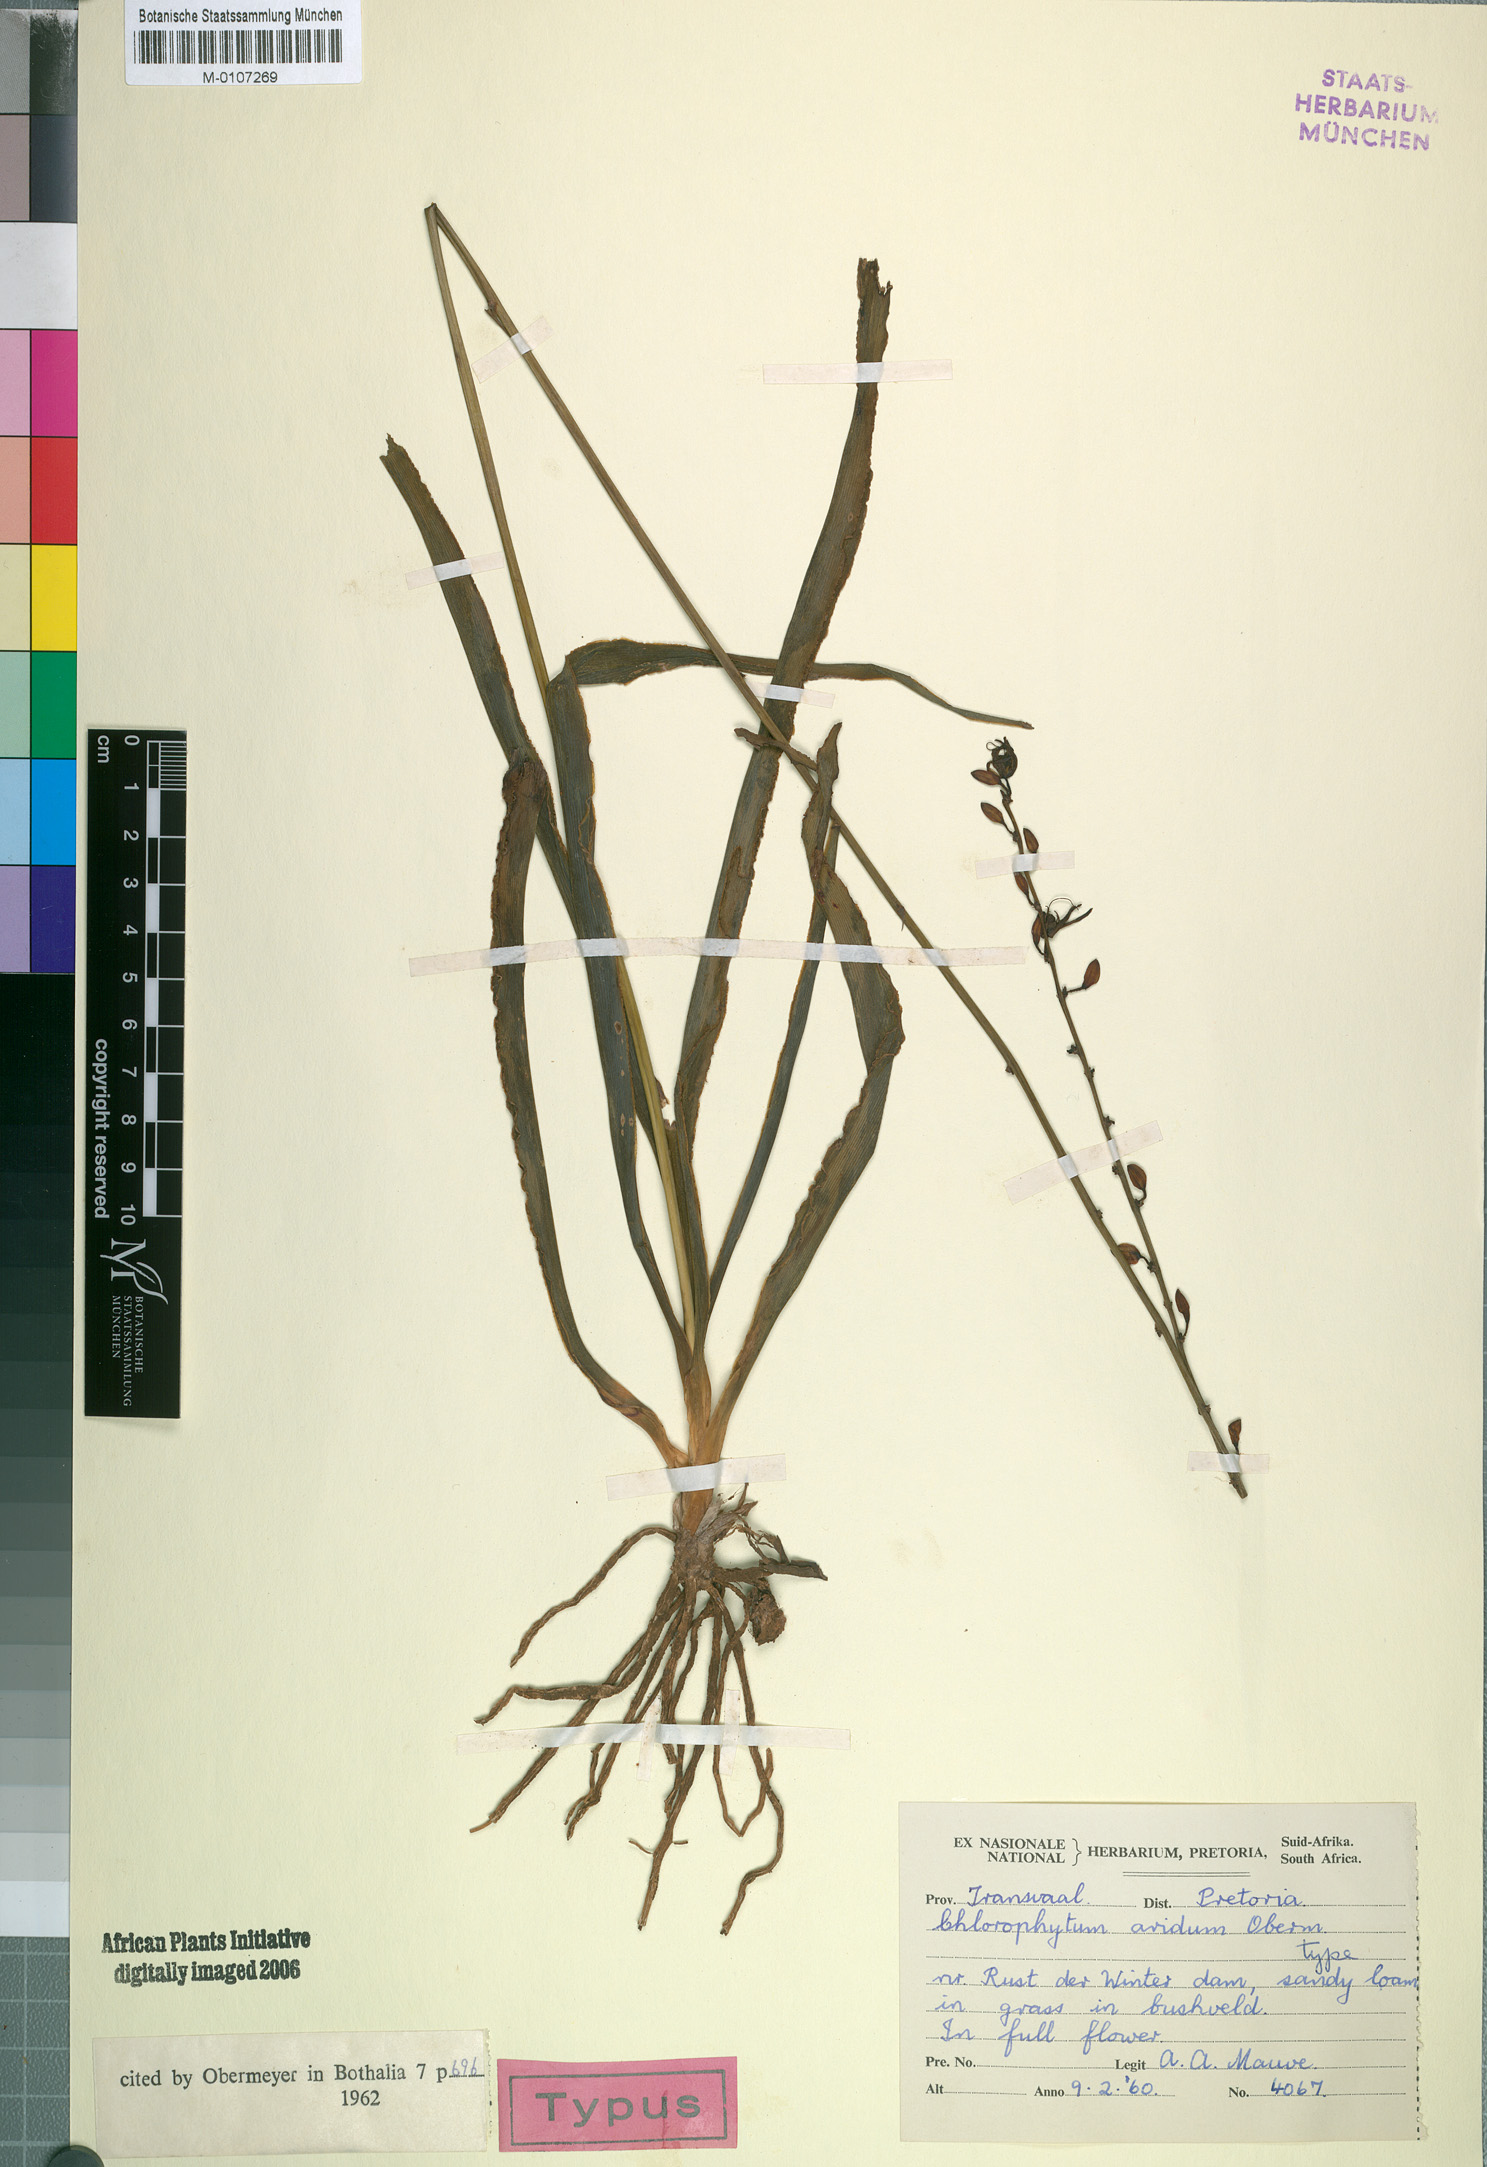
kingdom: Plantae
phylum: Tracheophyta
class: Liliopsida
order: Asparagales
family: Asparagaceae
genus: Chlorophytum
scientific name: Chlorophytum aridum
